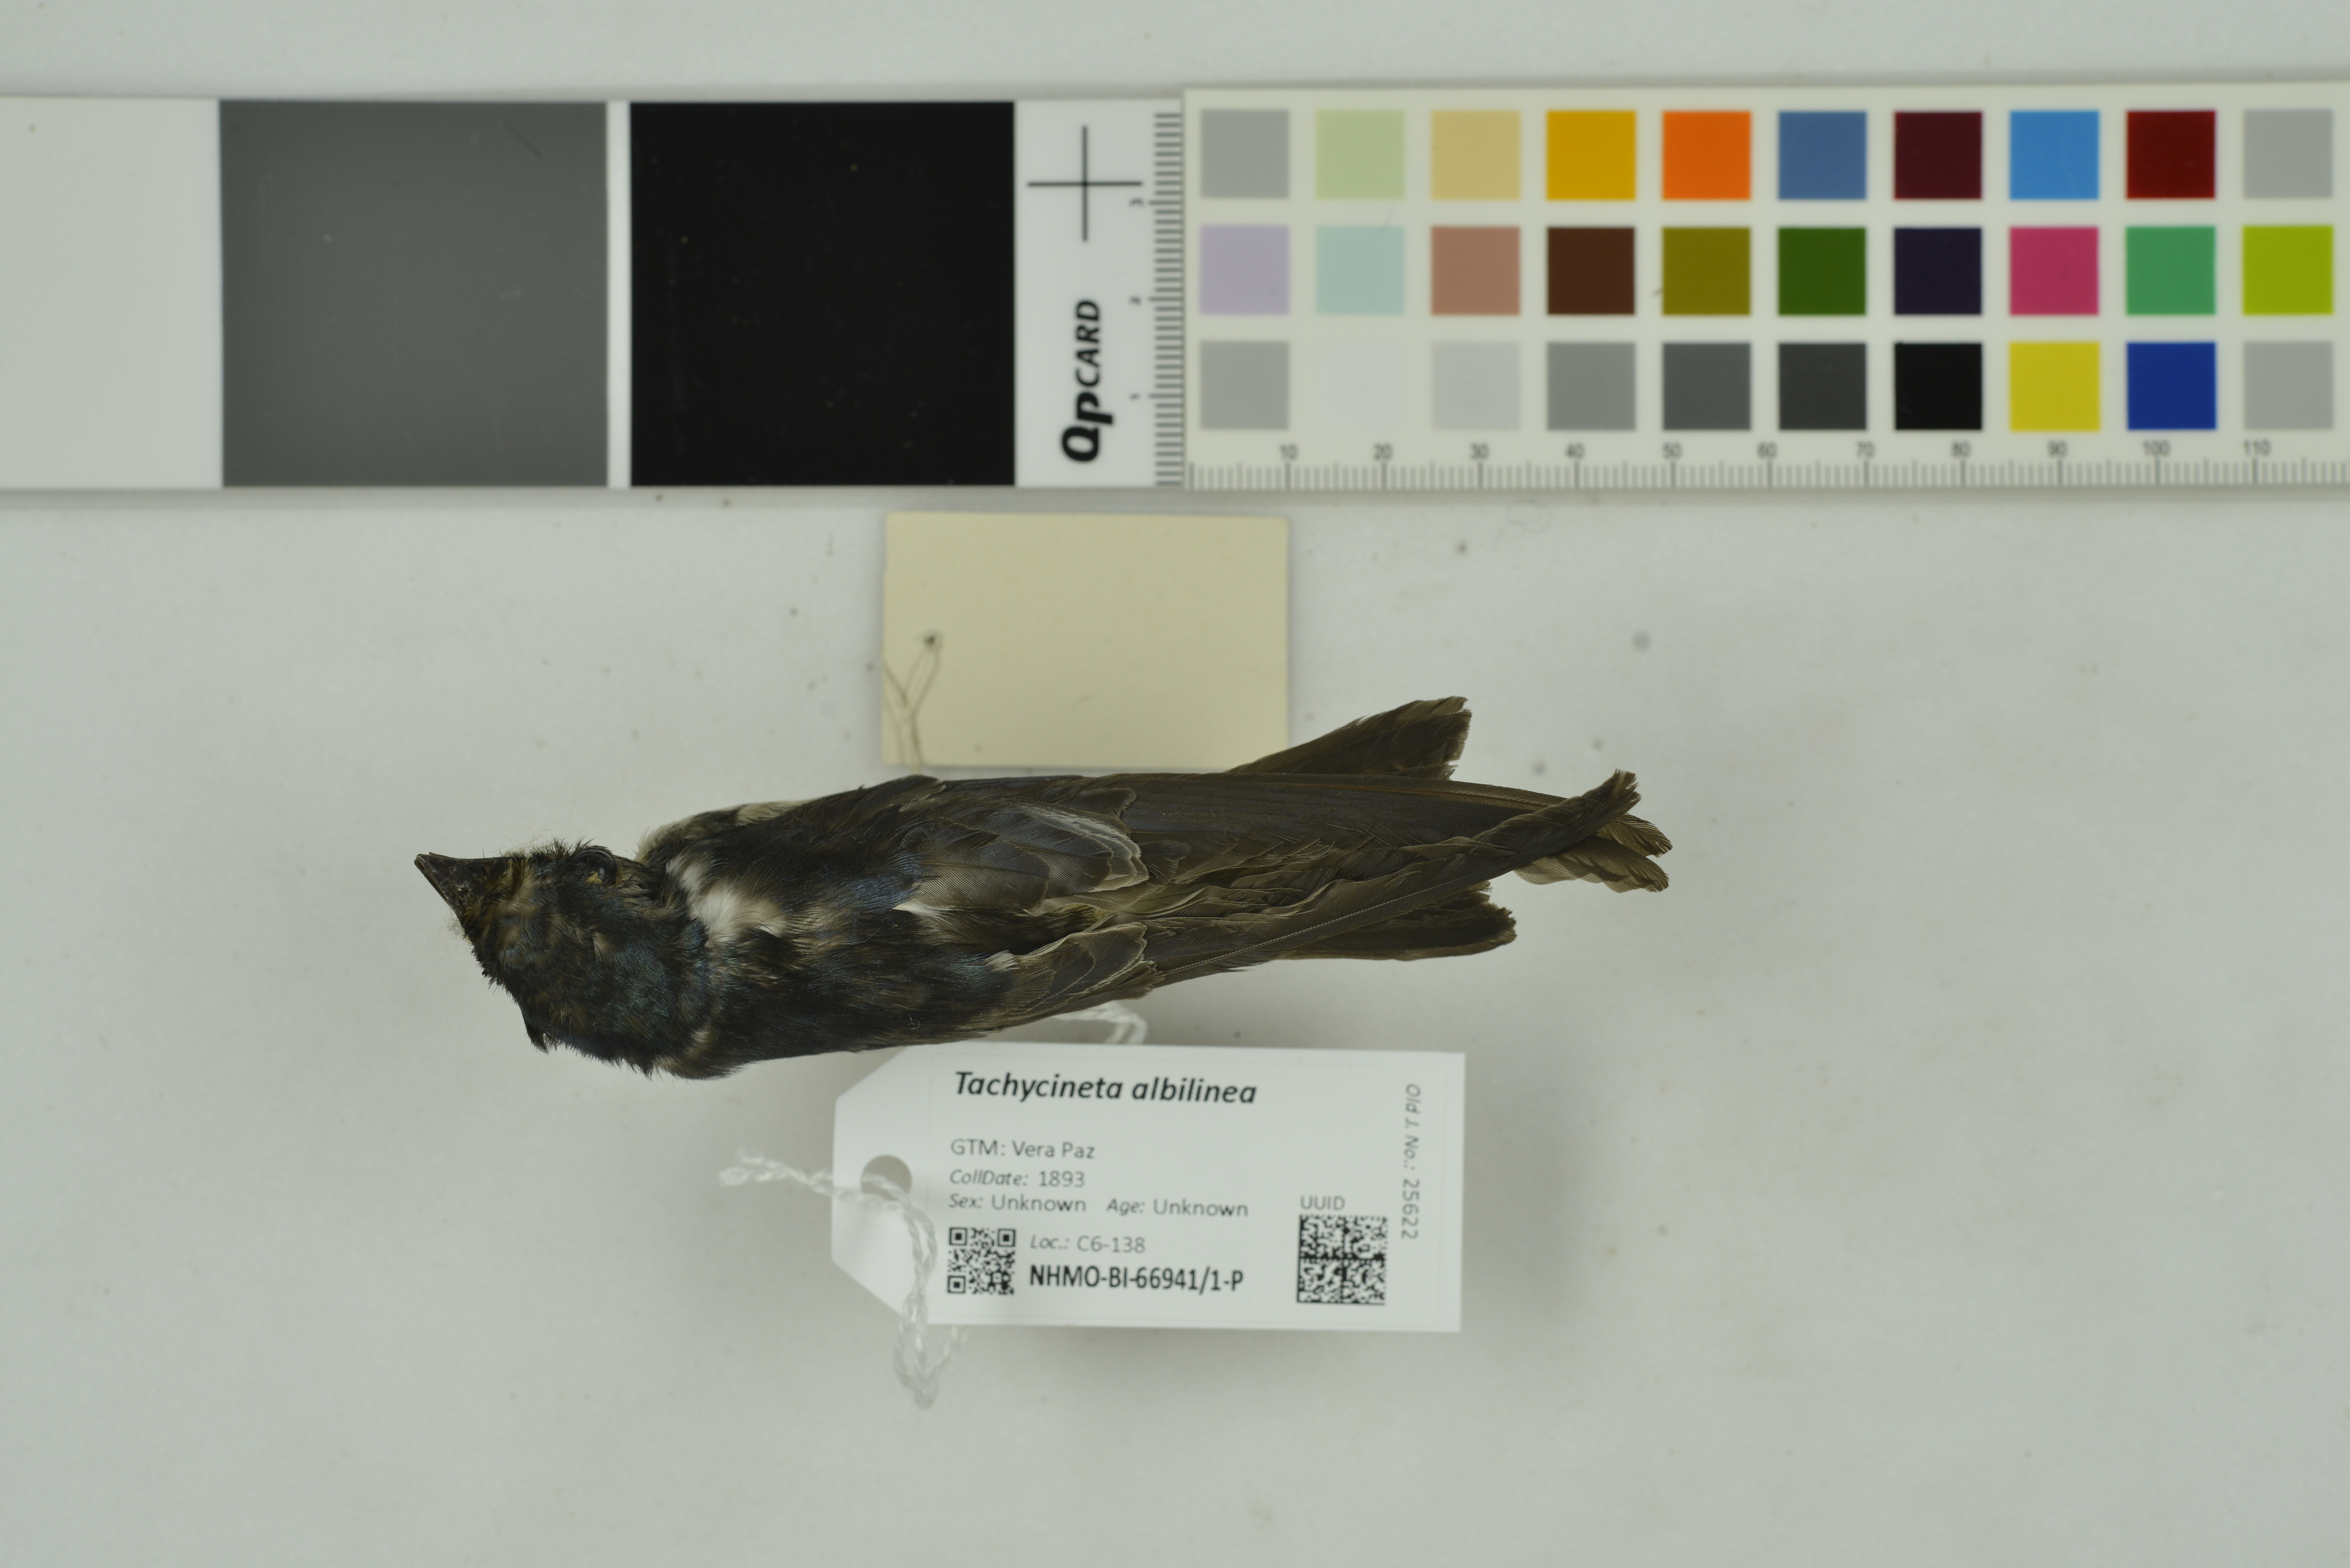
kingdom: Animalia
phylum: Chordata
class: Aves
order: Passeriformes
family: Hirundinidae
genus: Tachycineta
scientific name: Tachycineta albilinea
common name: Mangrove swallow
